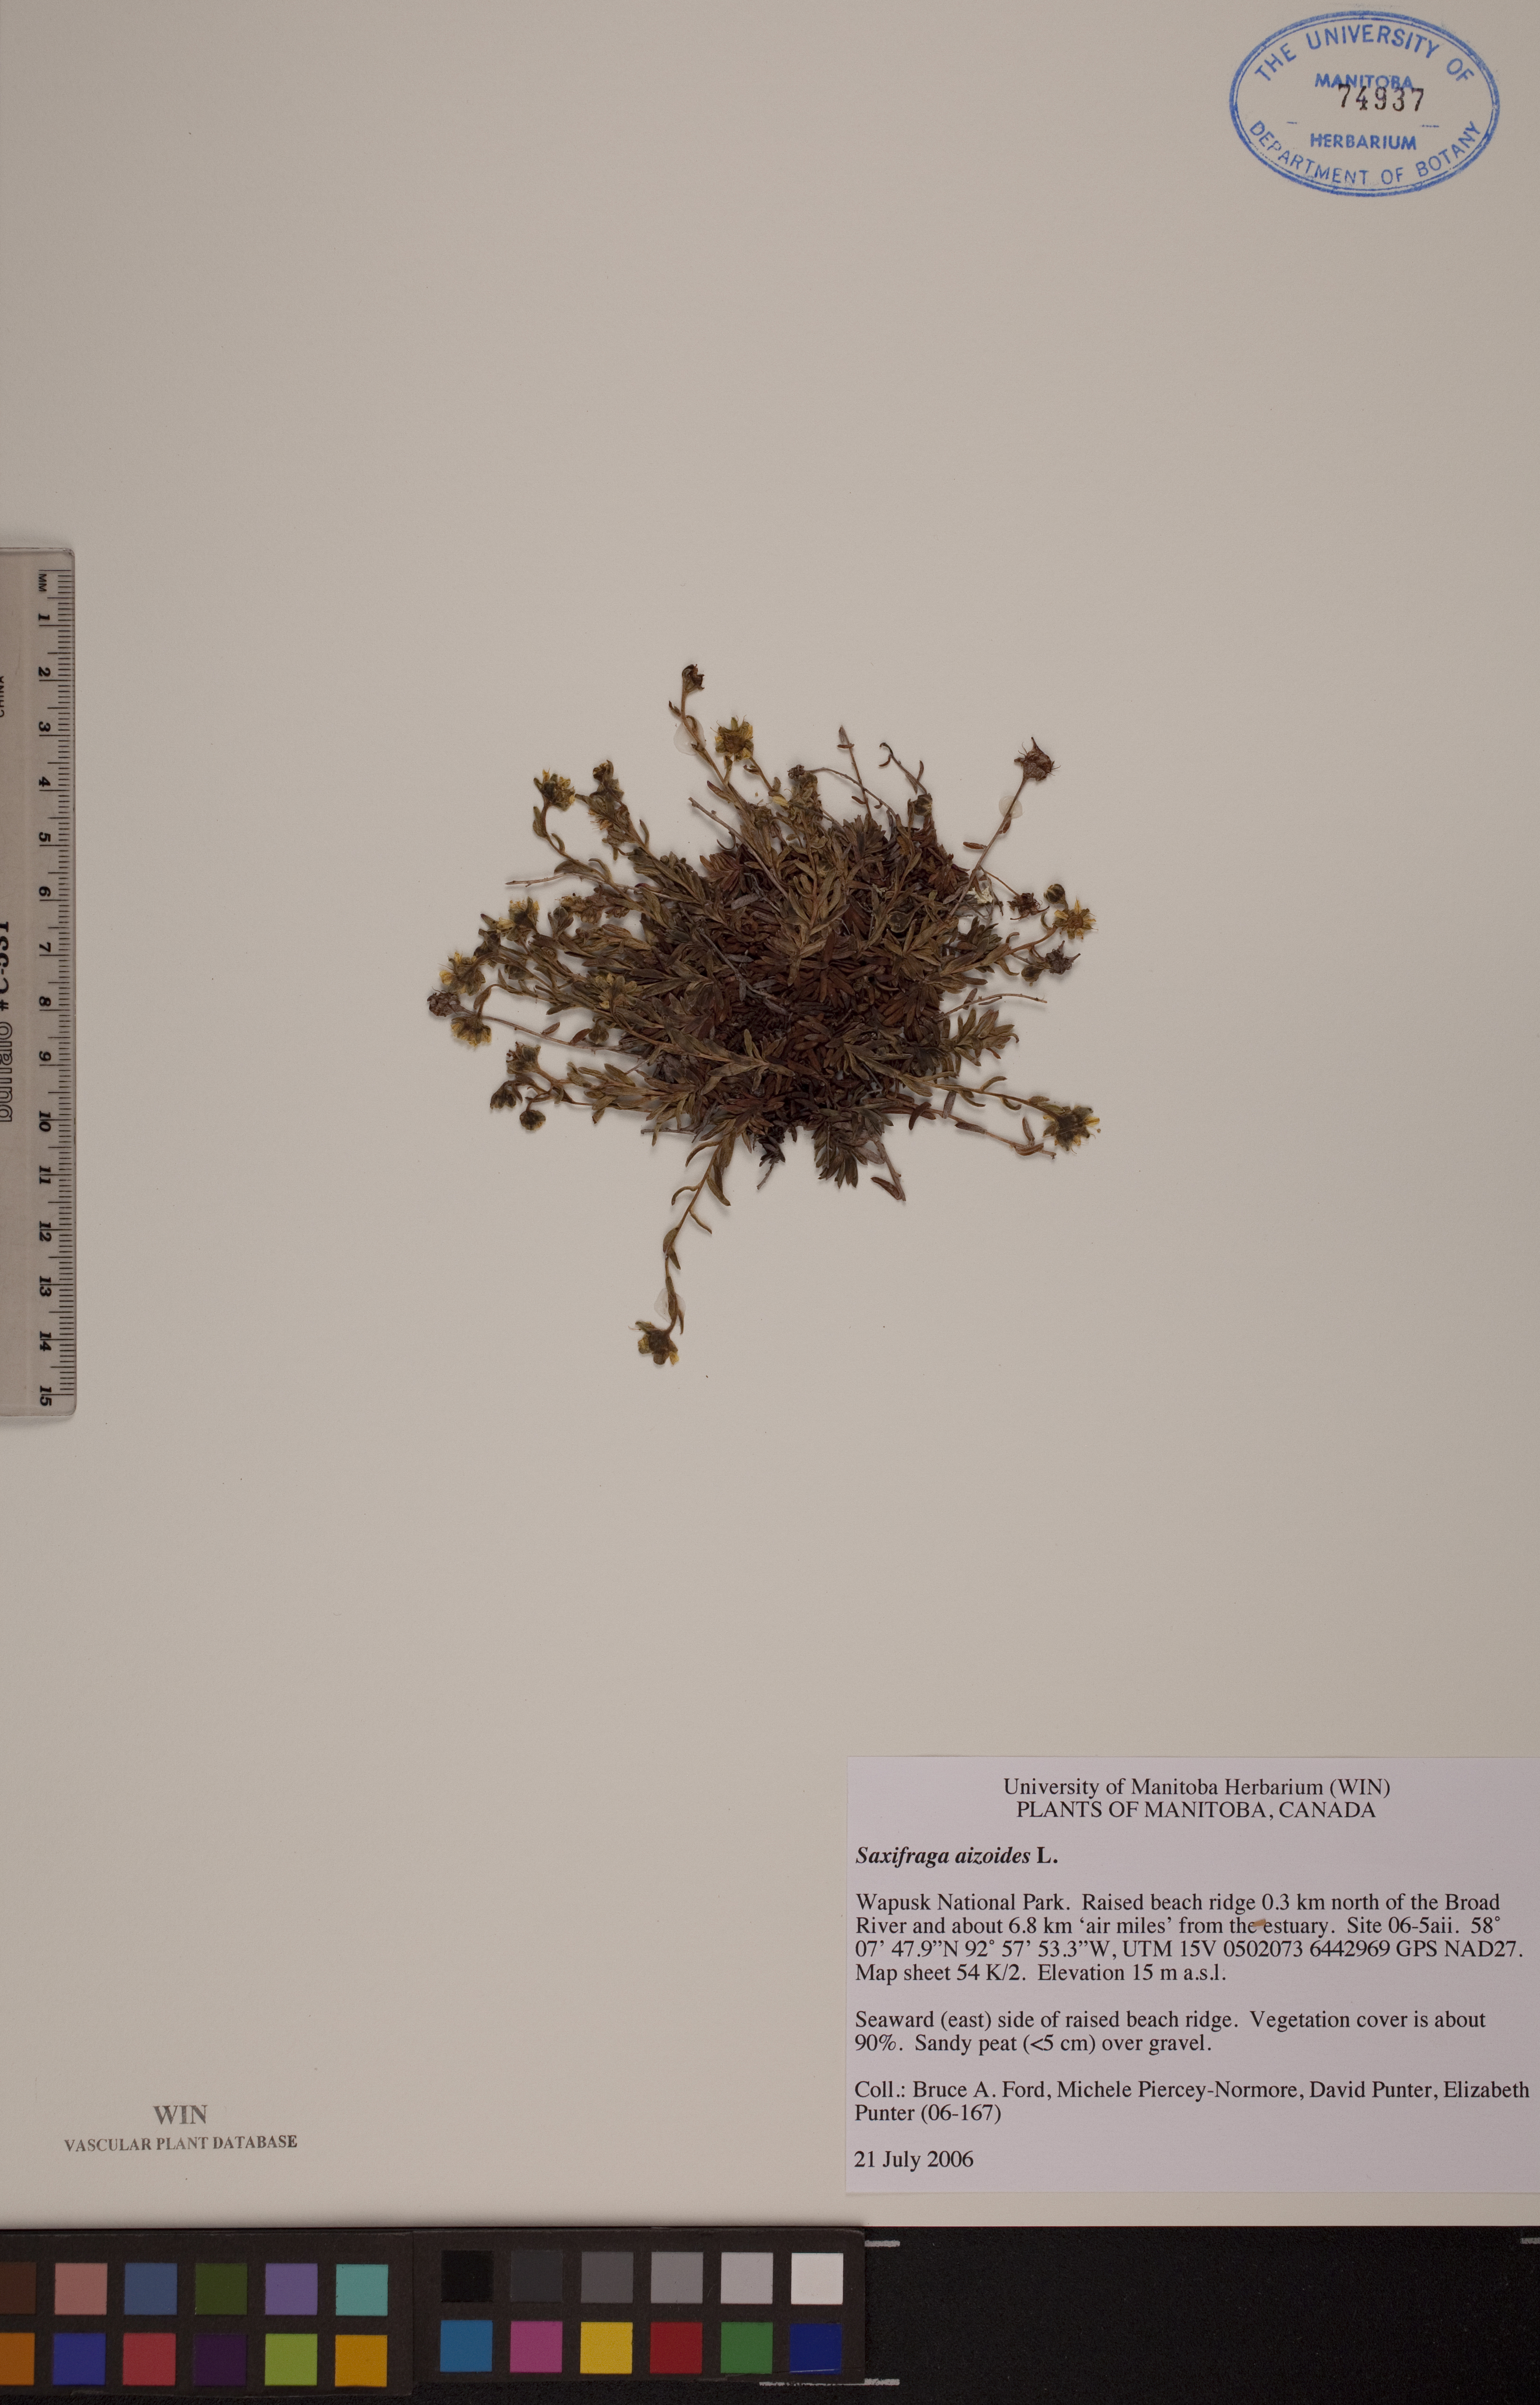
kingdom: Plantae
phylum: Tracheophyta
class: Magnoliopsida
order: Saxifragales
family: Saxifragaceae
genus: Saxifraga
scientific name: Saxifraga aizoides
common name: Yellow mountain saxifrage
